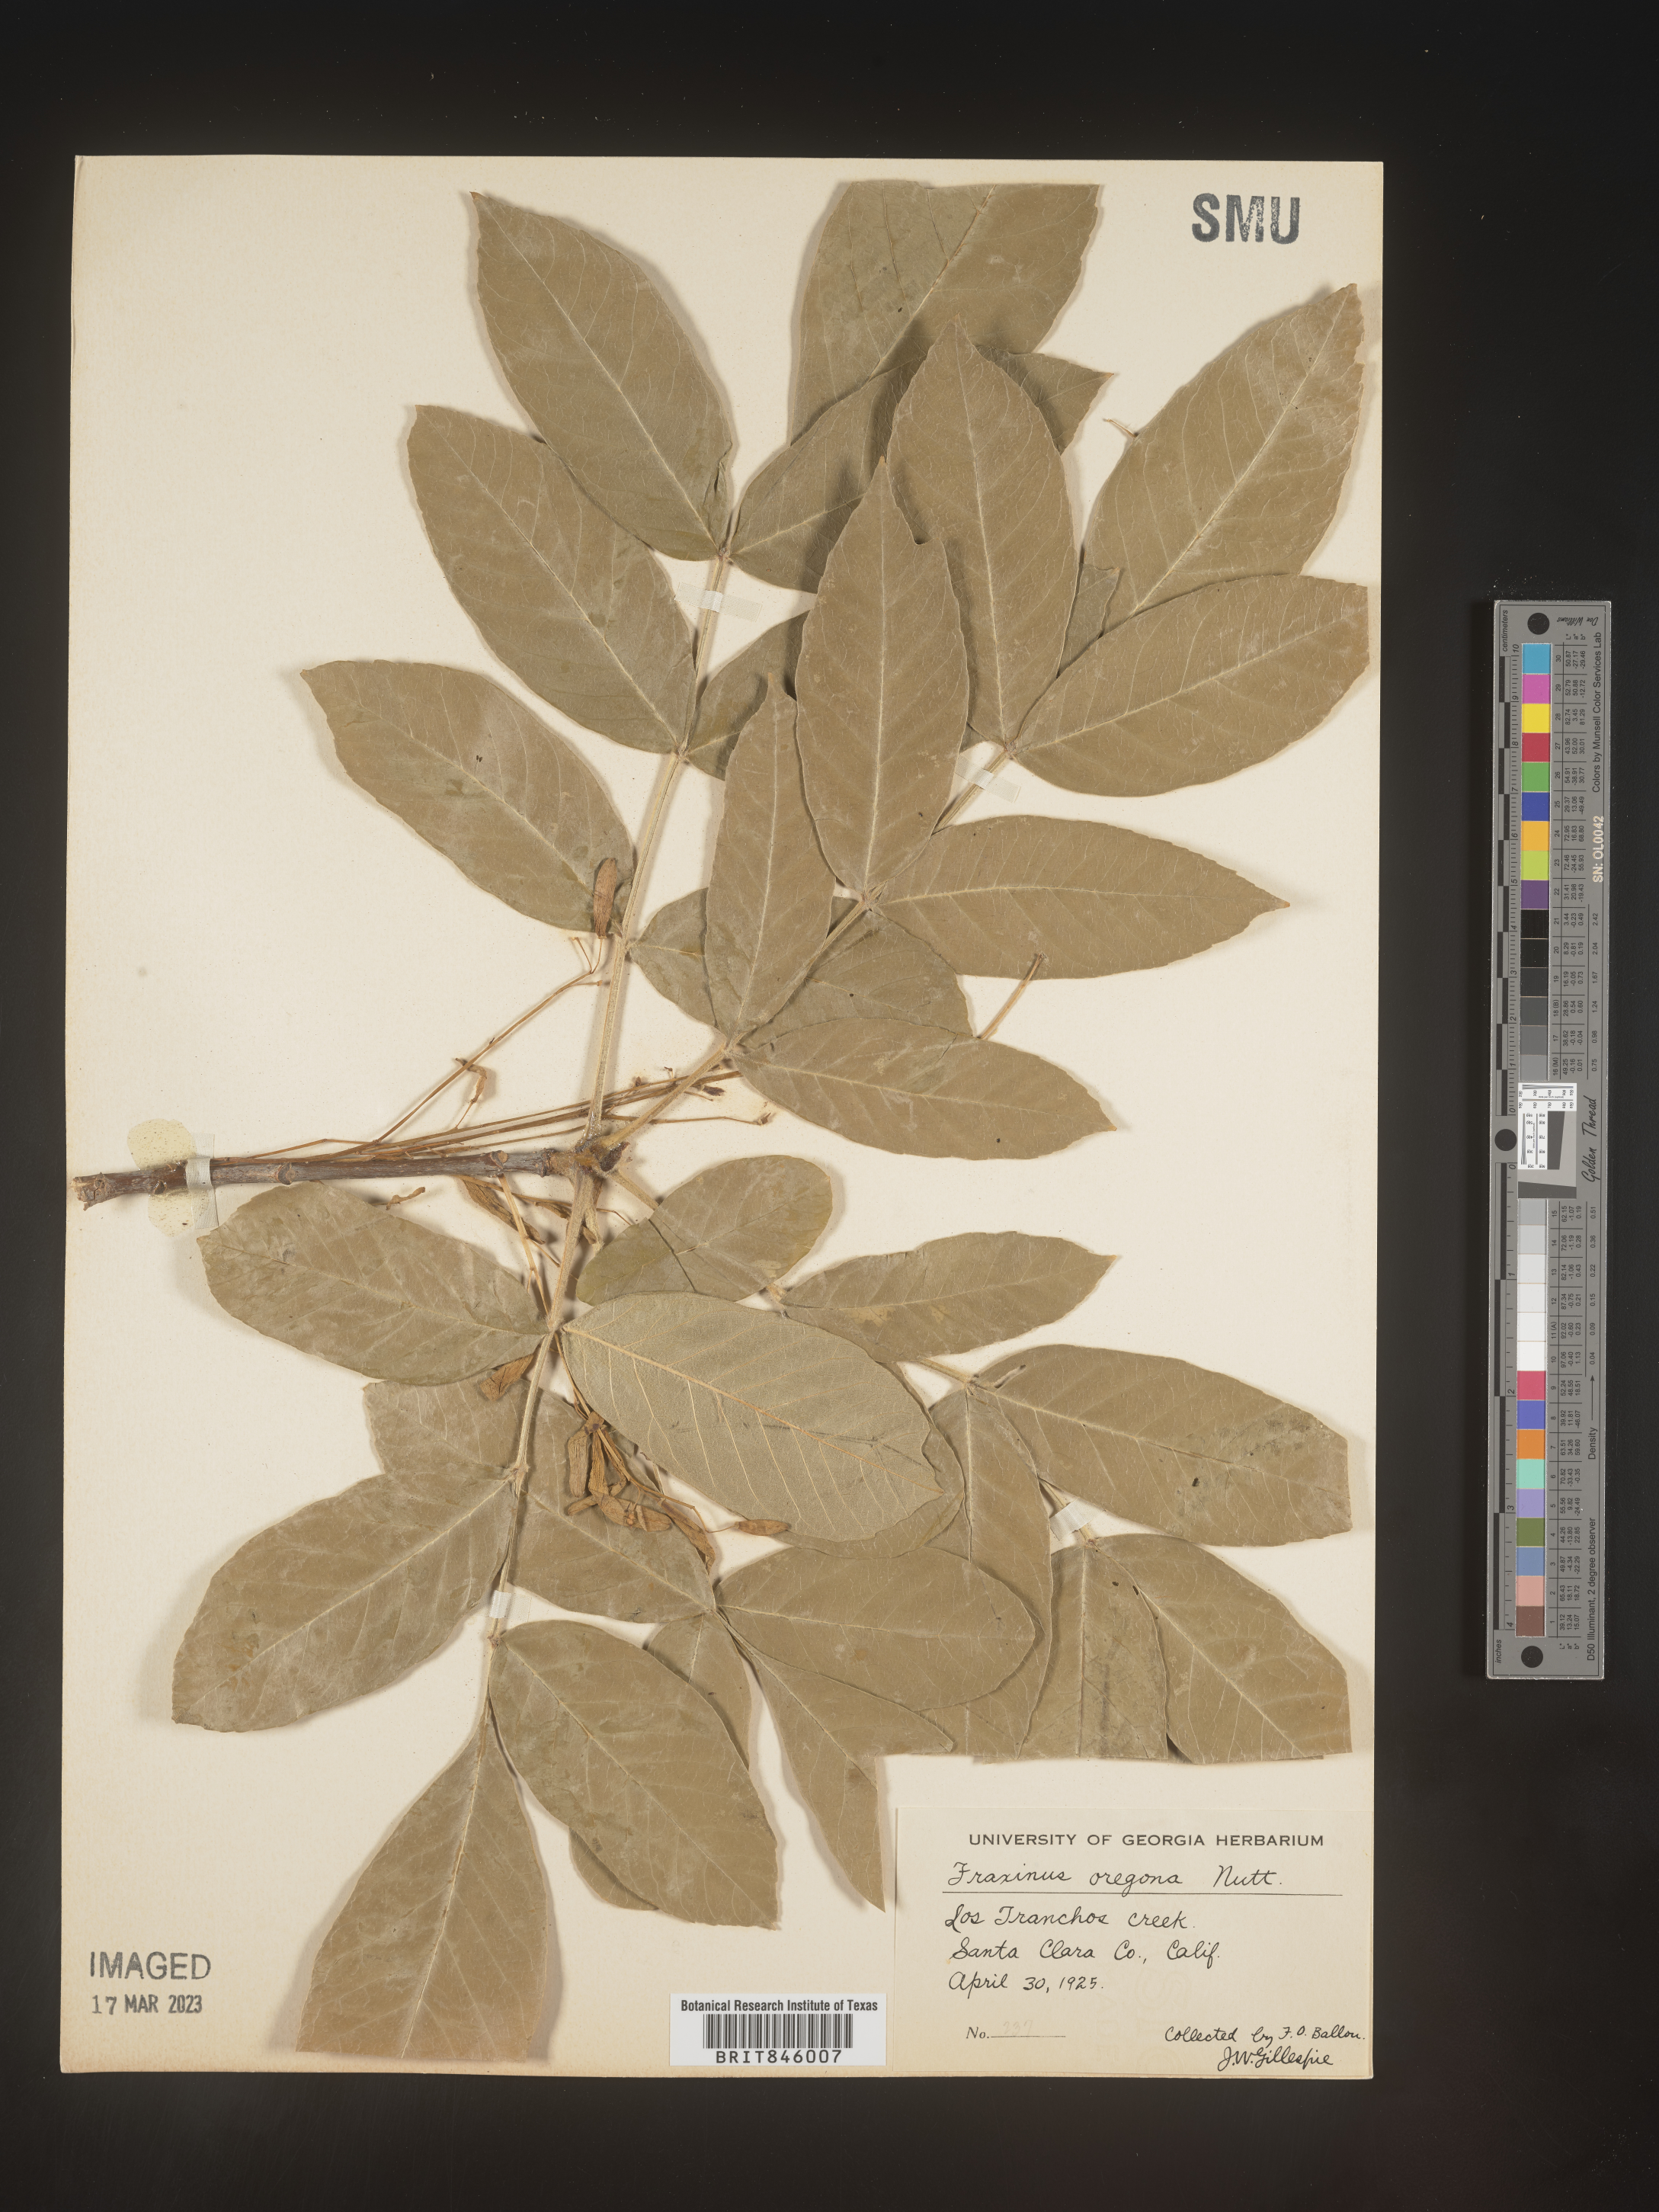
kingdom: Plantae
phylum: Tracheophyta
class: Magnoliopsida
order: Lamiales
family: Oleaceae
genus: Fraxinus
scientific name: Fraxinus latifolia
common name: Oregon ash
